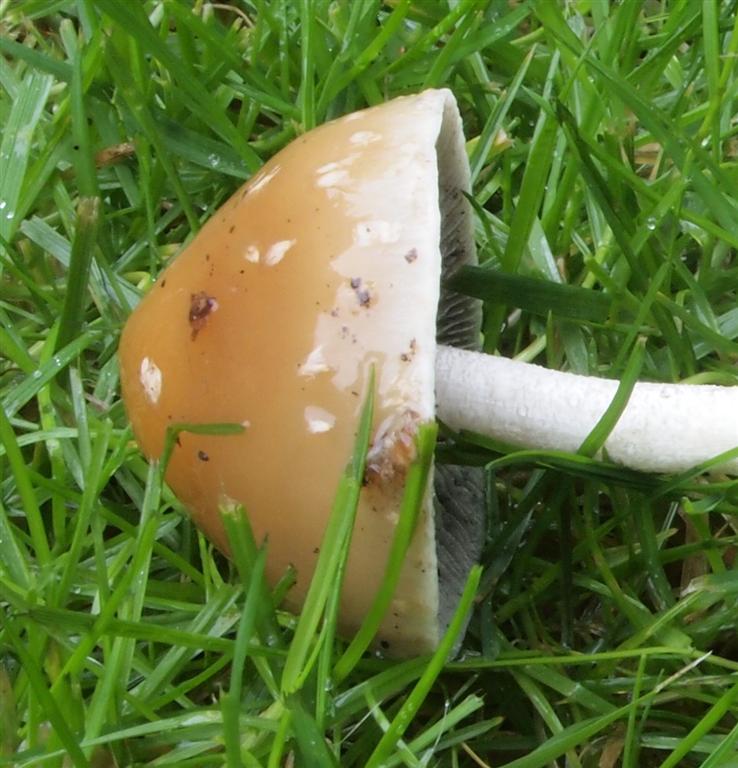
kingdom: Fungi
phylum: Basidiomycota
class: Agaricomycetes
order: Agaricales
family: Strophariaceae
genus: Leratiomyces
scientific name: Leratiomyces squamosus
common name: skællet bredblad
